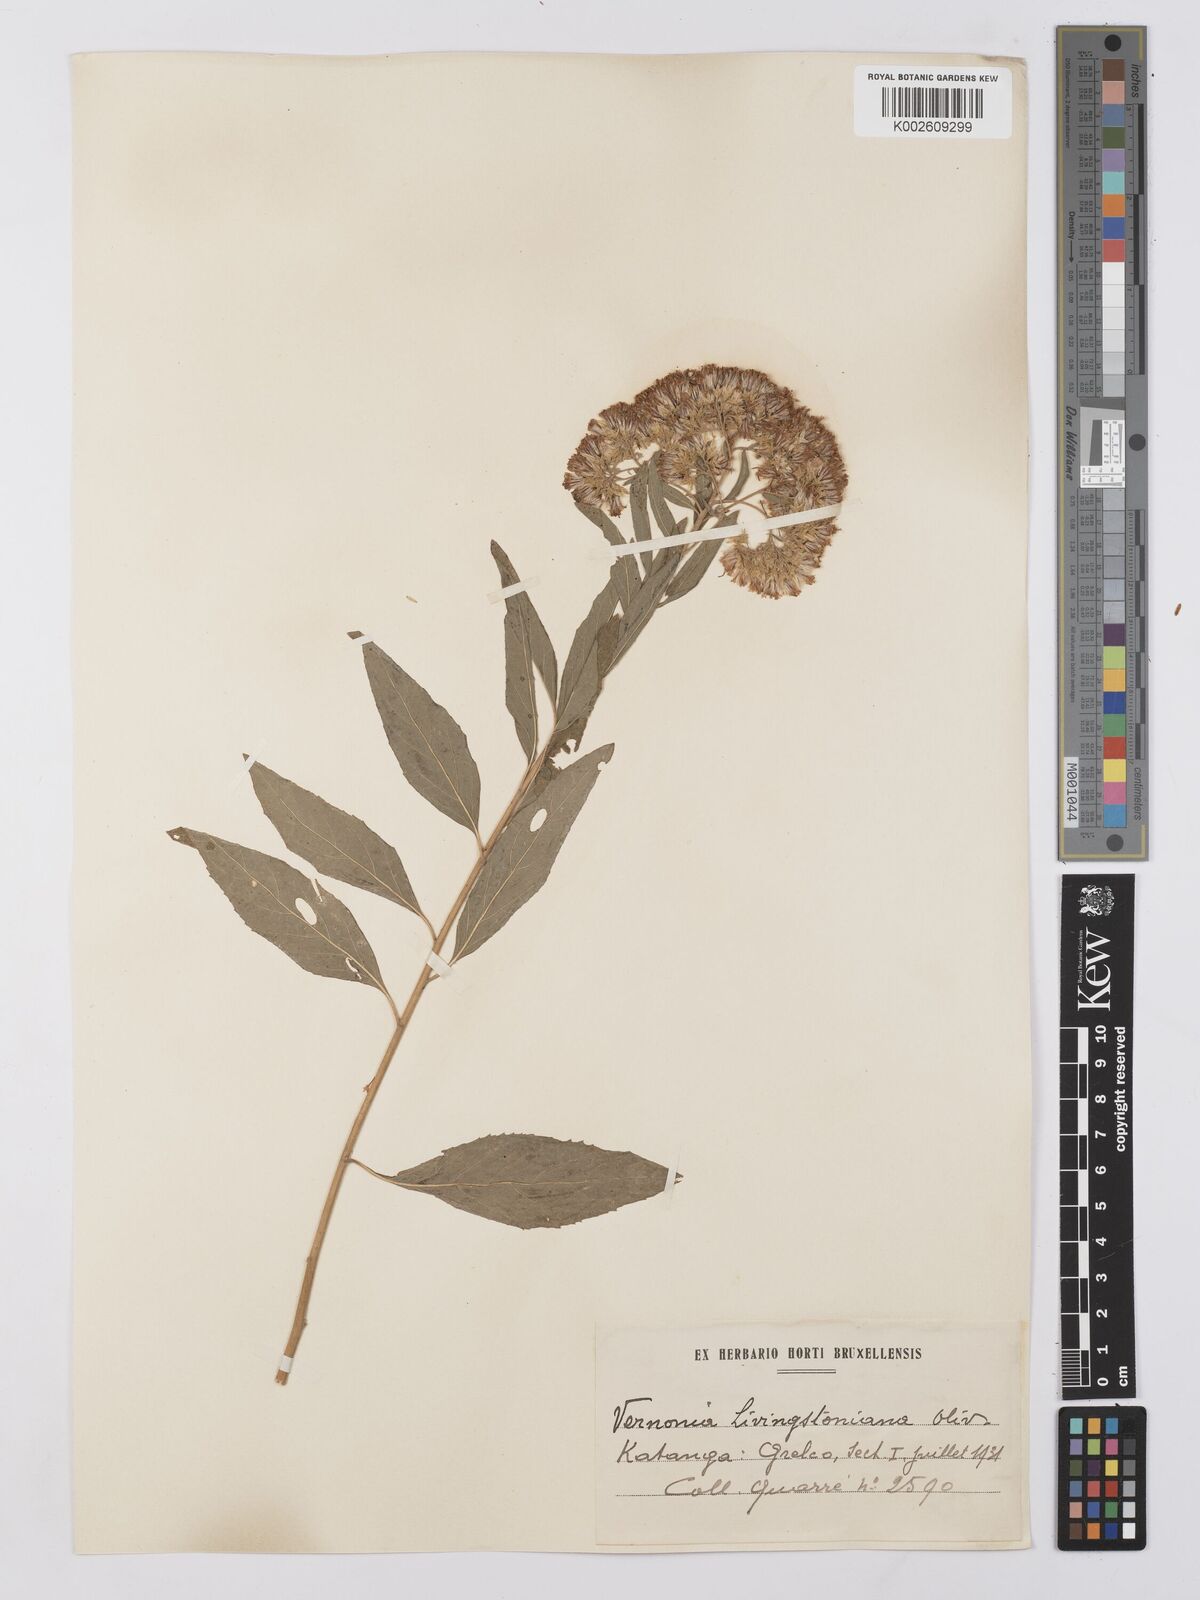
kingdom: Plantae
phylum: Tracheophyta
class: Magnoliopsida
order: Asterales
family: Asteraceae
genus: Gymnanthemum
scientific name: Gymnanthemum thomsonianum
